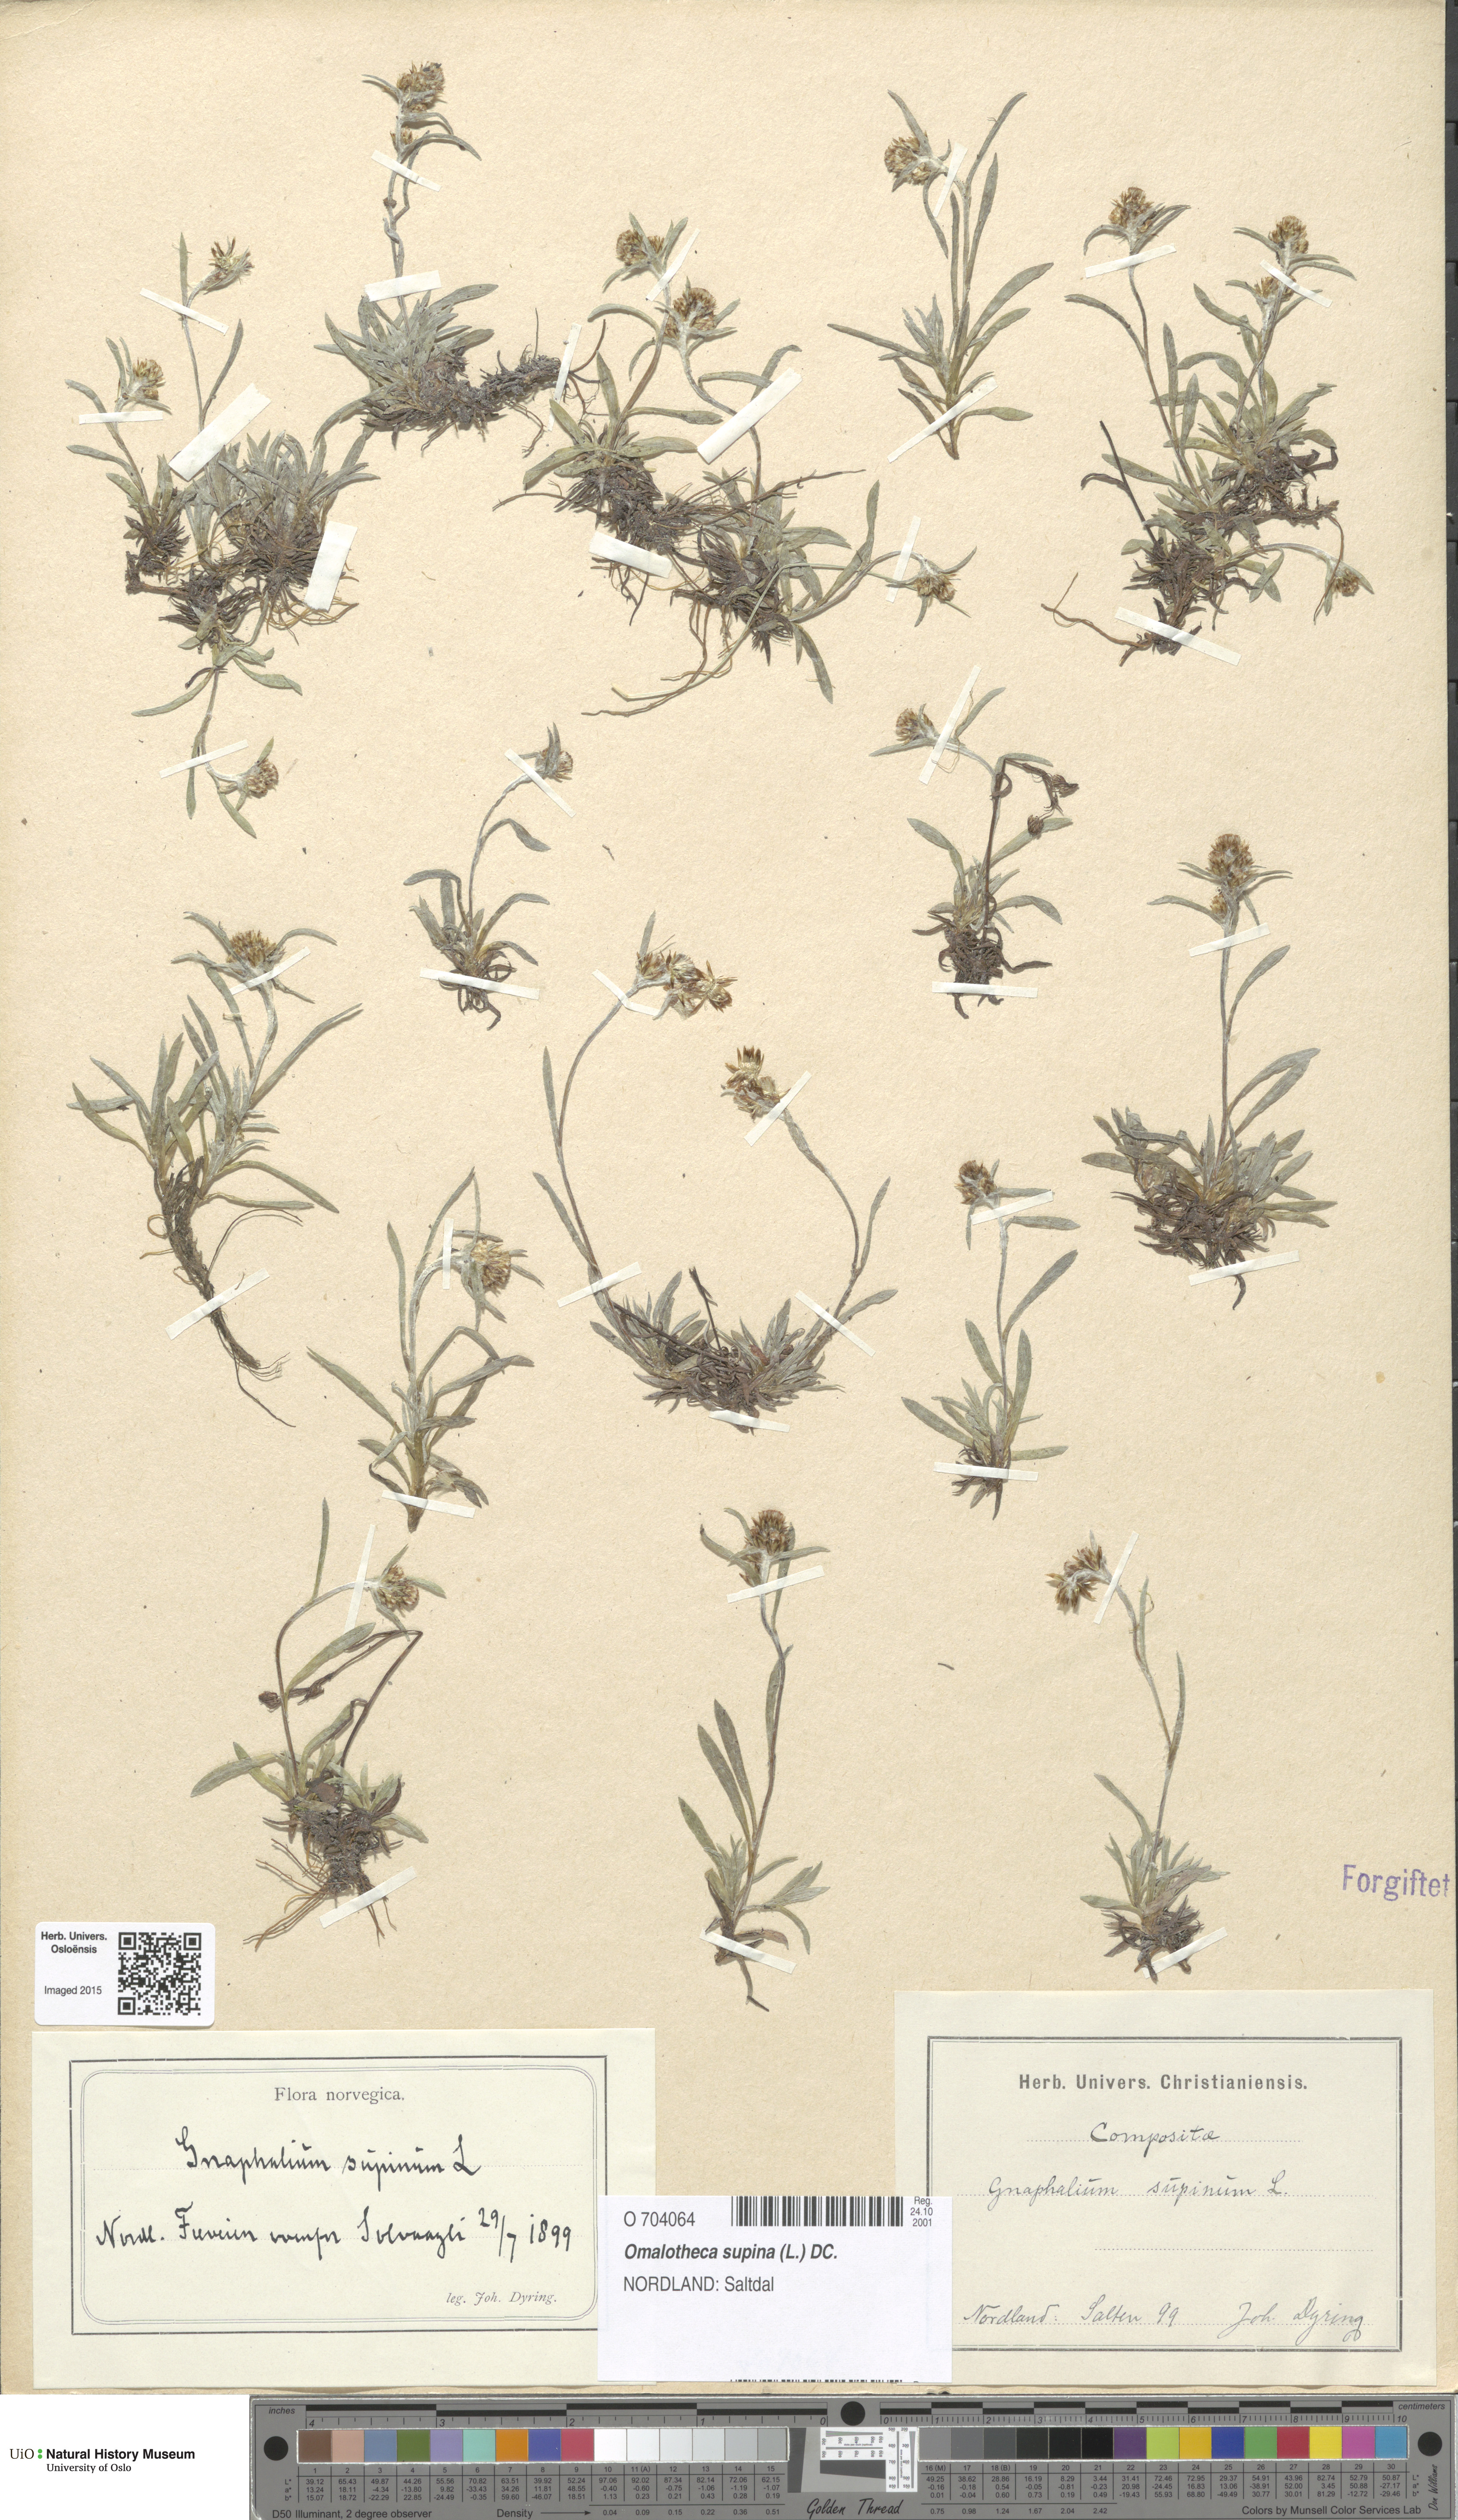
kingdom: Plantae
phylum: Tracheophyta
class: Magnoliopsida
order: Asterales
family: Asteraceae
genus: Omalotheca
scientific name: Omalotheca supina
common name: Alpine arctic-cudweed
